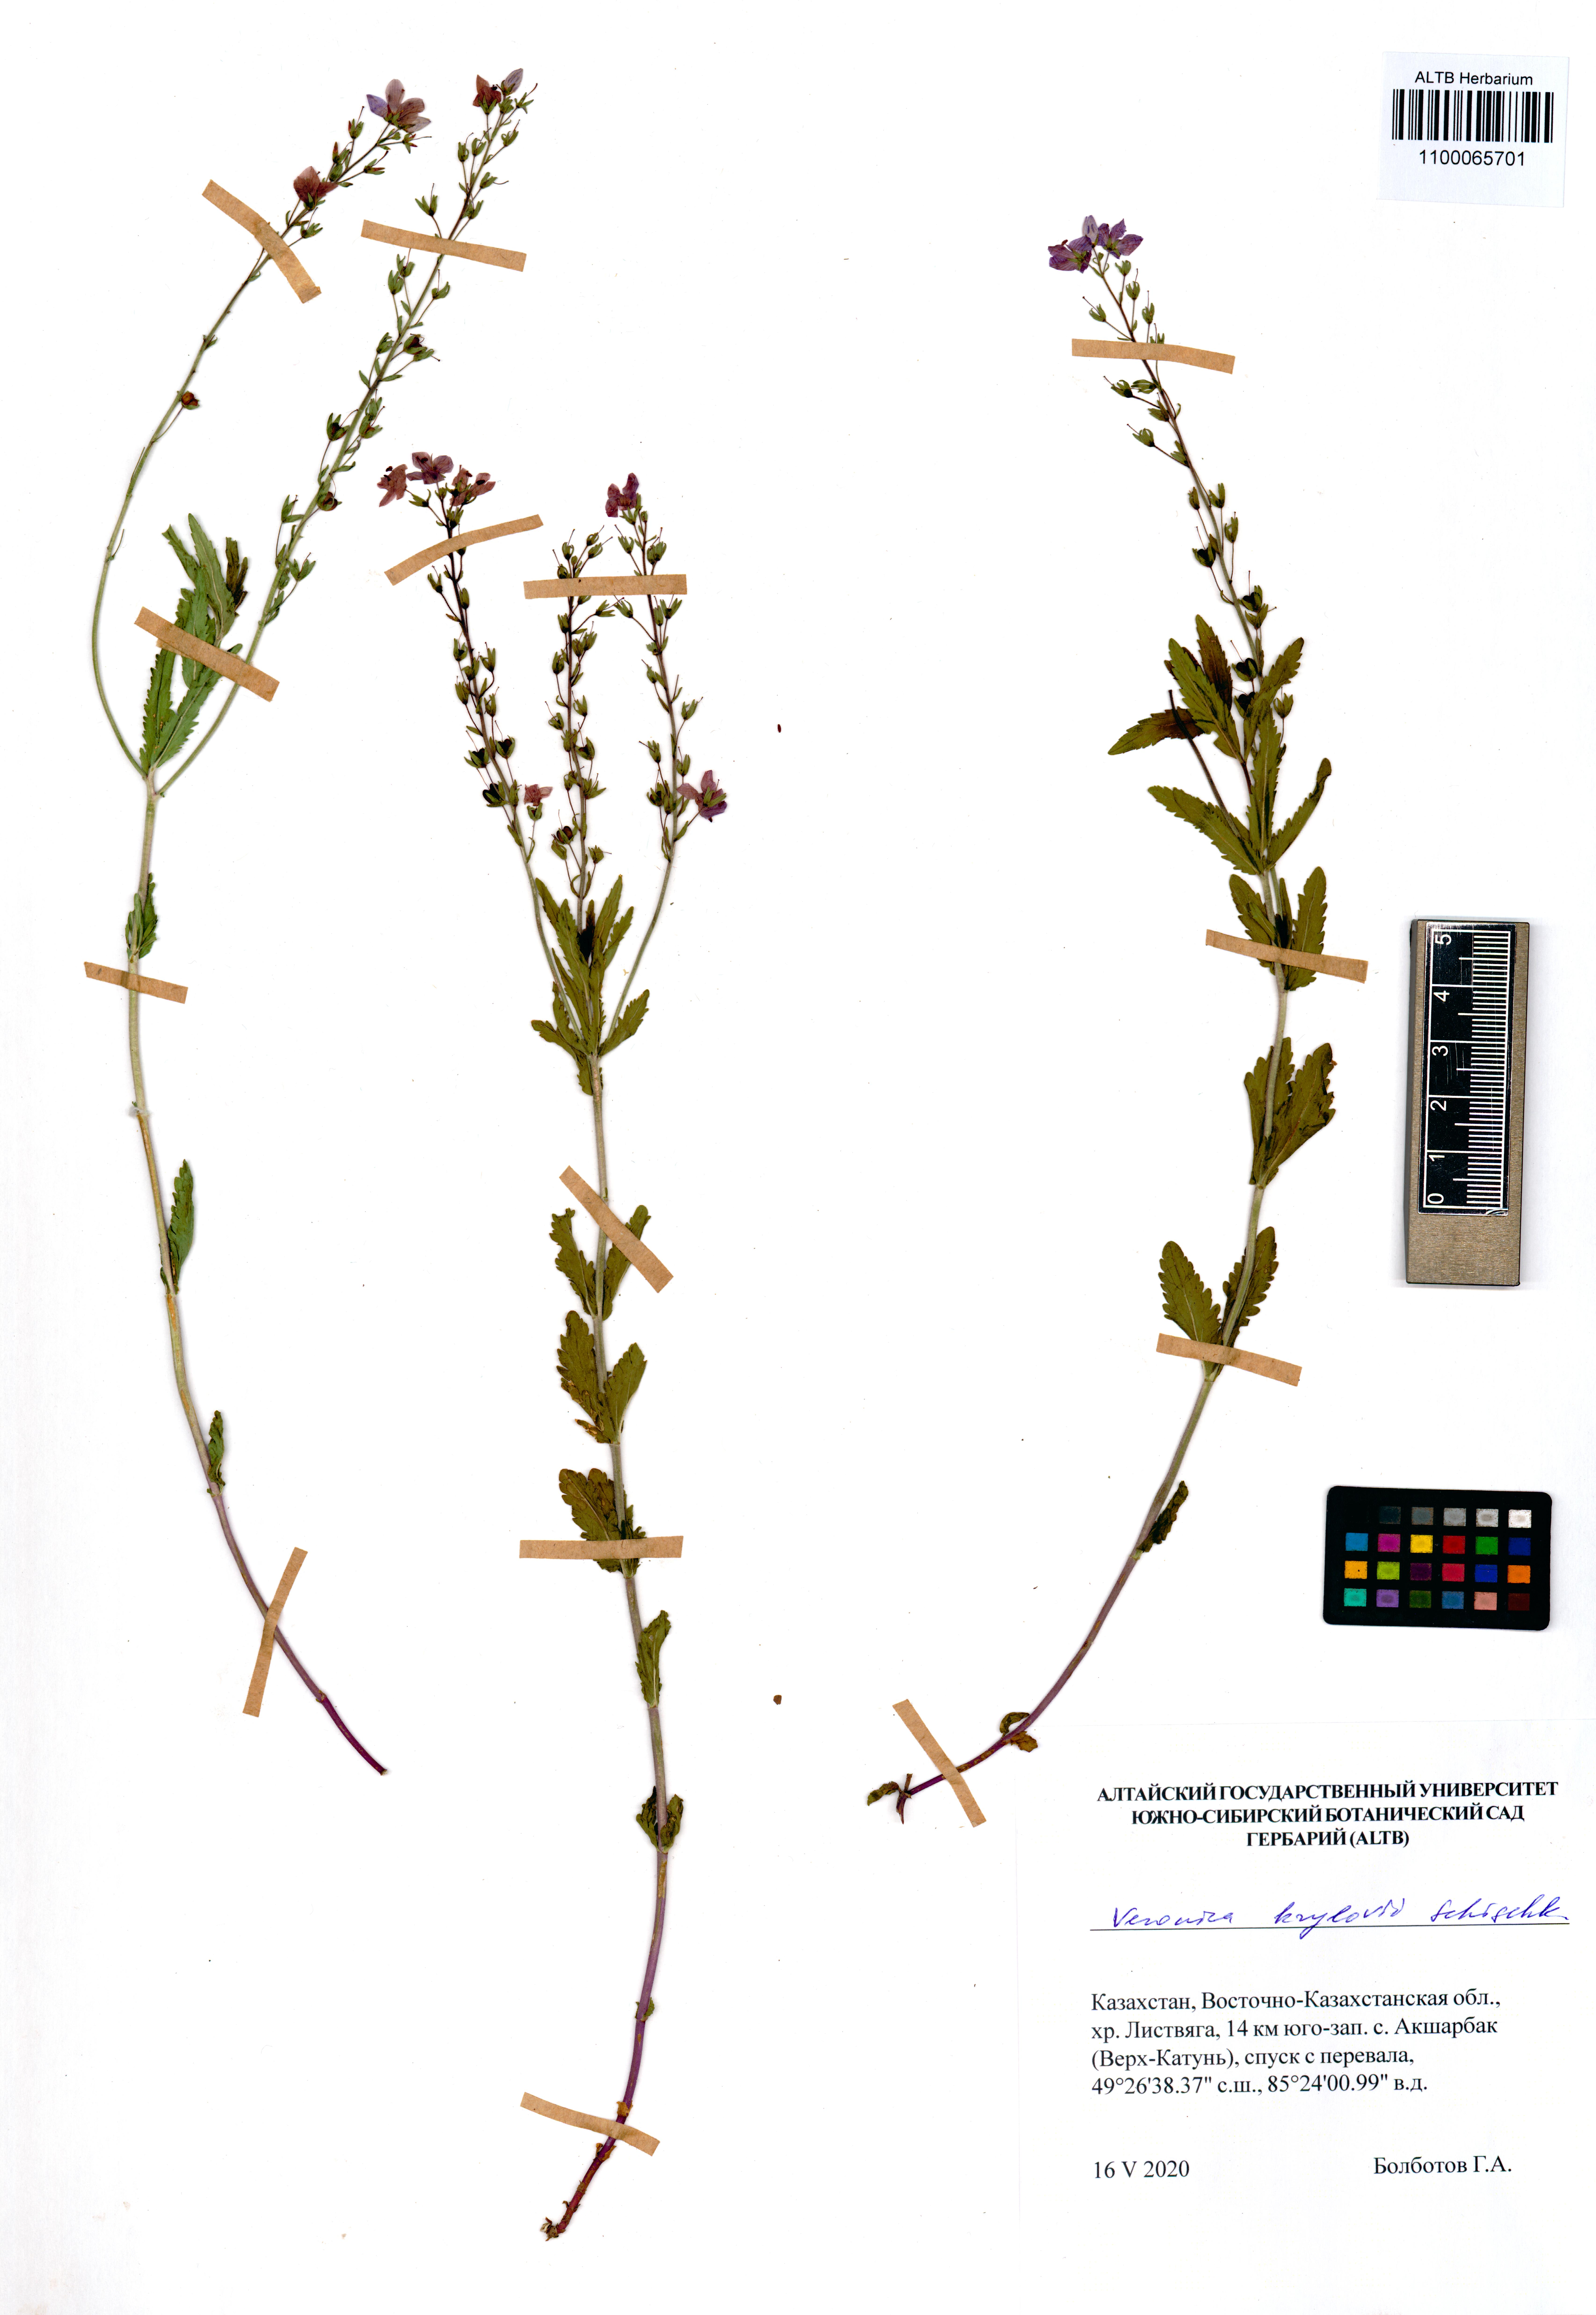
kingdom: Plantae
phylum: Tracheophyta
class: Magnoliopsida
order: Lamiales
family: Plantaginaceae
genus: Veronica
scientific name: Veronica krylovii
